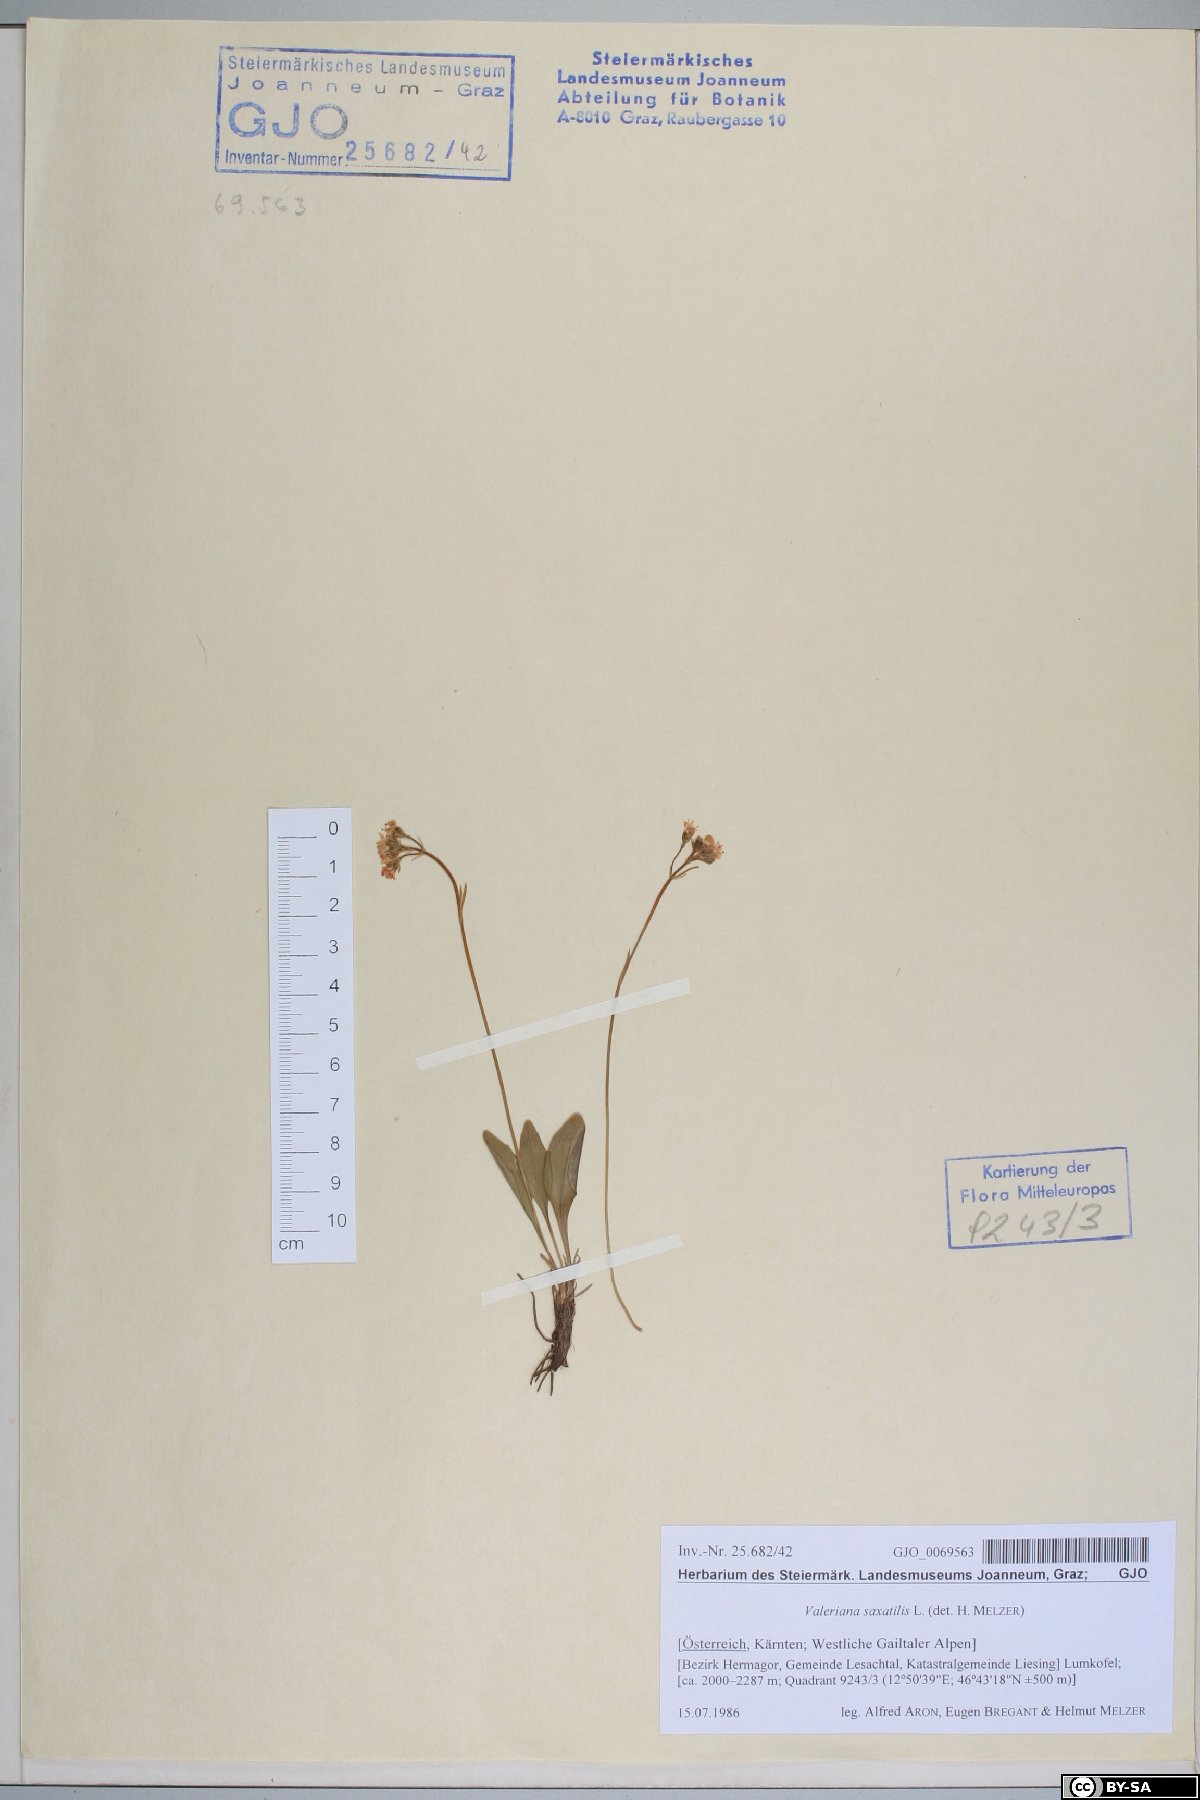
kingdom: Plantae
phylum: Tracheophyta
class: Magnoliopsida
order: Dipsacales
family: Caprifoliaceae
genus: Valeriana
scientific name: Valeriana saxatilis
